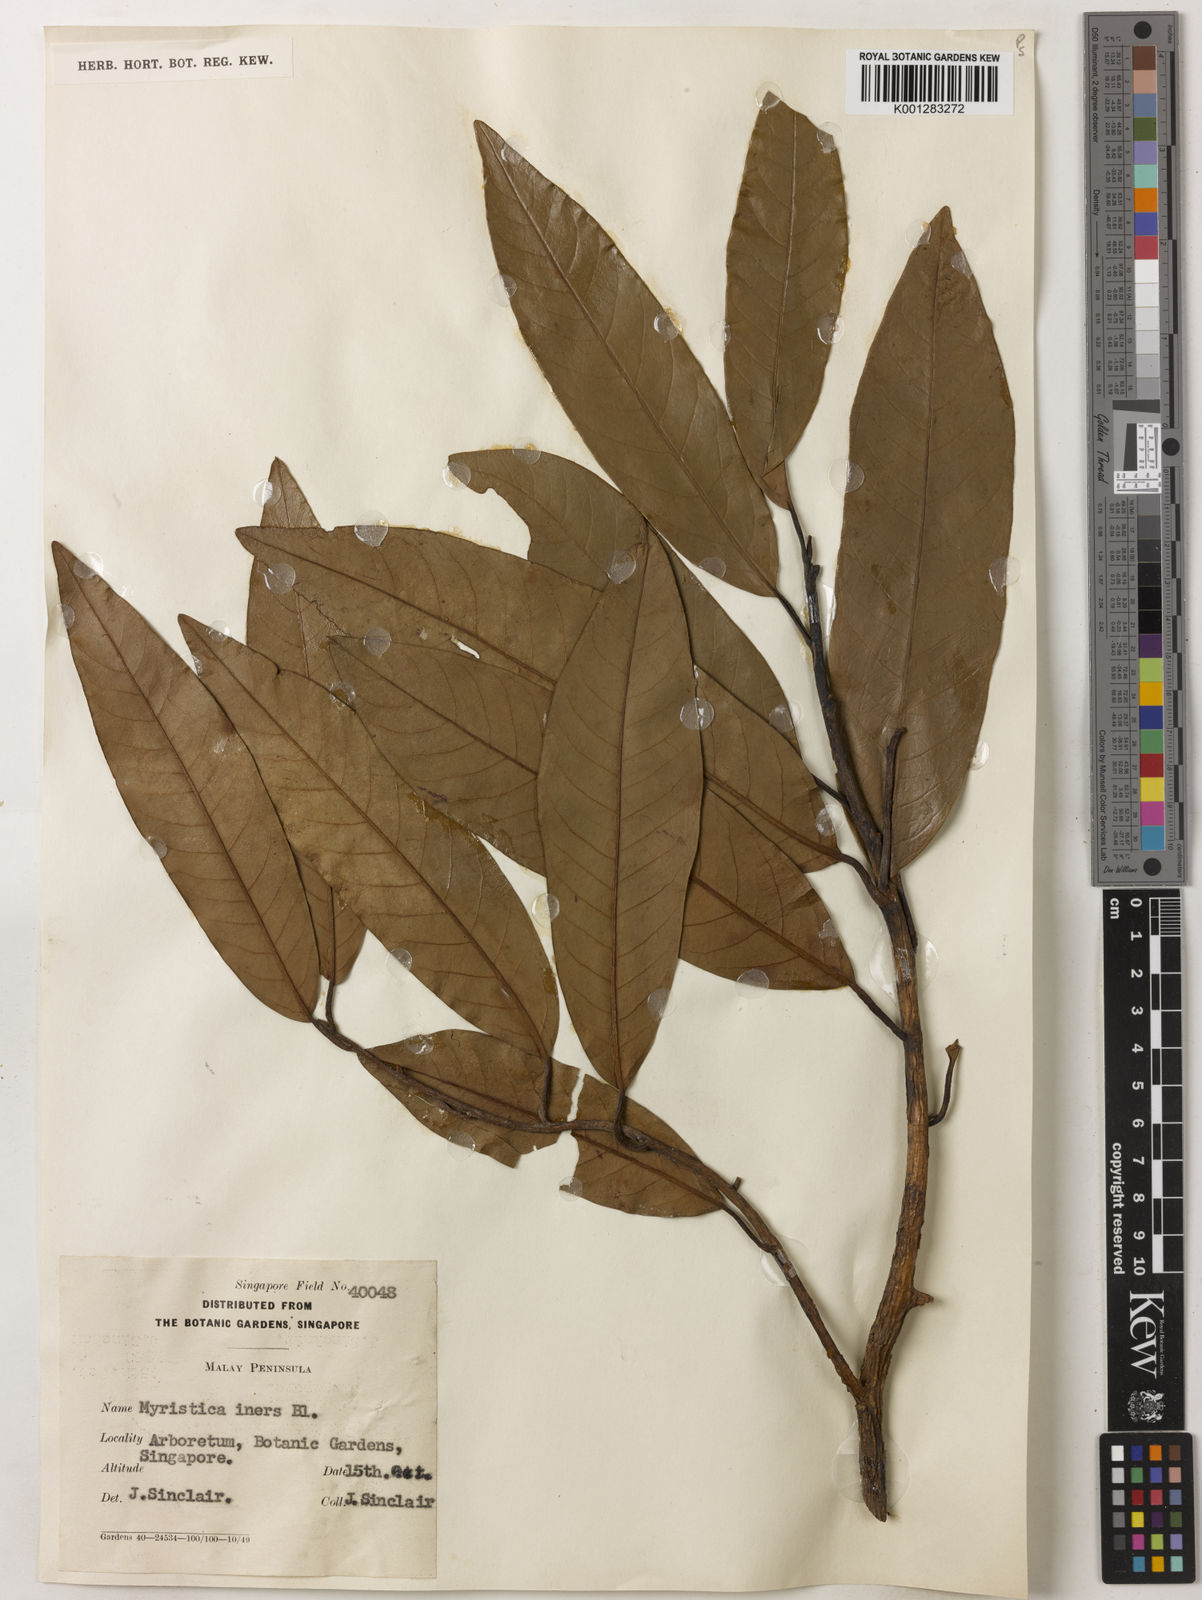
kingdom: Plantae
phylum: Tracheophyta
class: Magnoliopsida
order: Magnoliales
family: Myristicaceae
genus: Myristica
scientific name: Myristica iners
